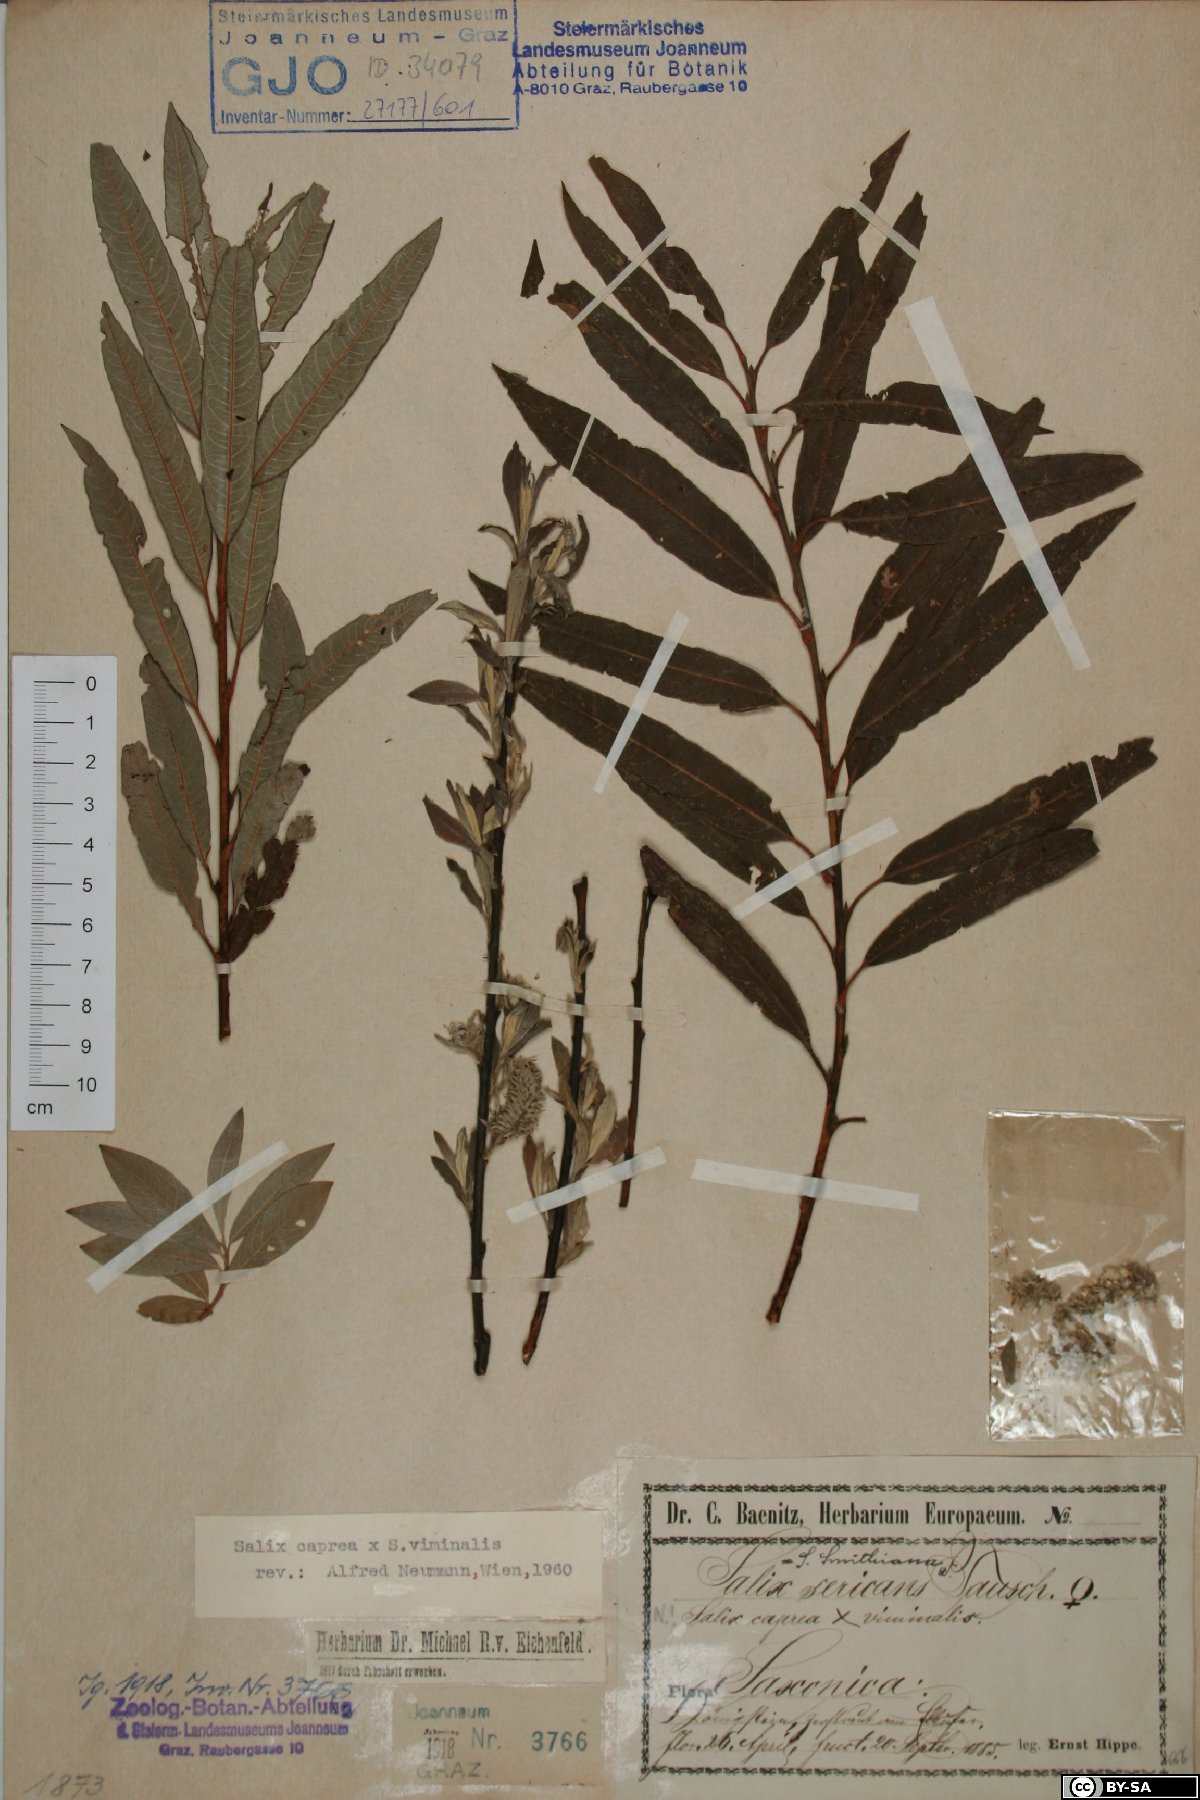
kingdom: Plantae
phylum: Tracheophyta
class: Magnoliopsida
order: Malpighiales
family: Salicaceae
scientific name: Salicaceae
